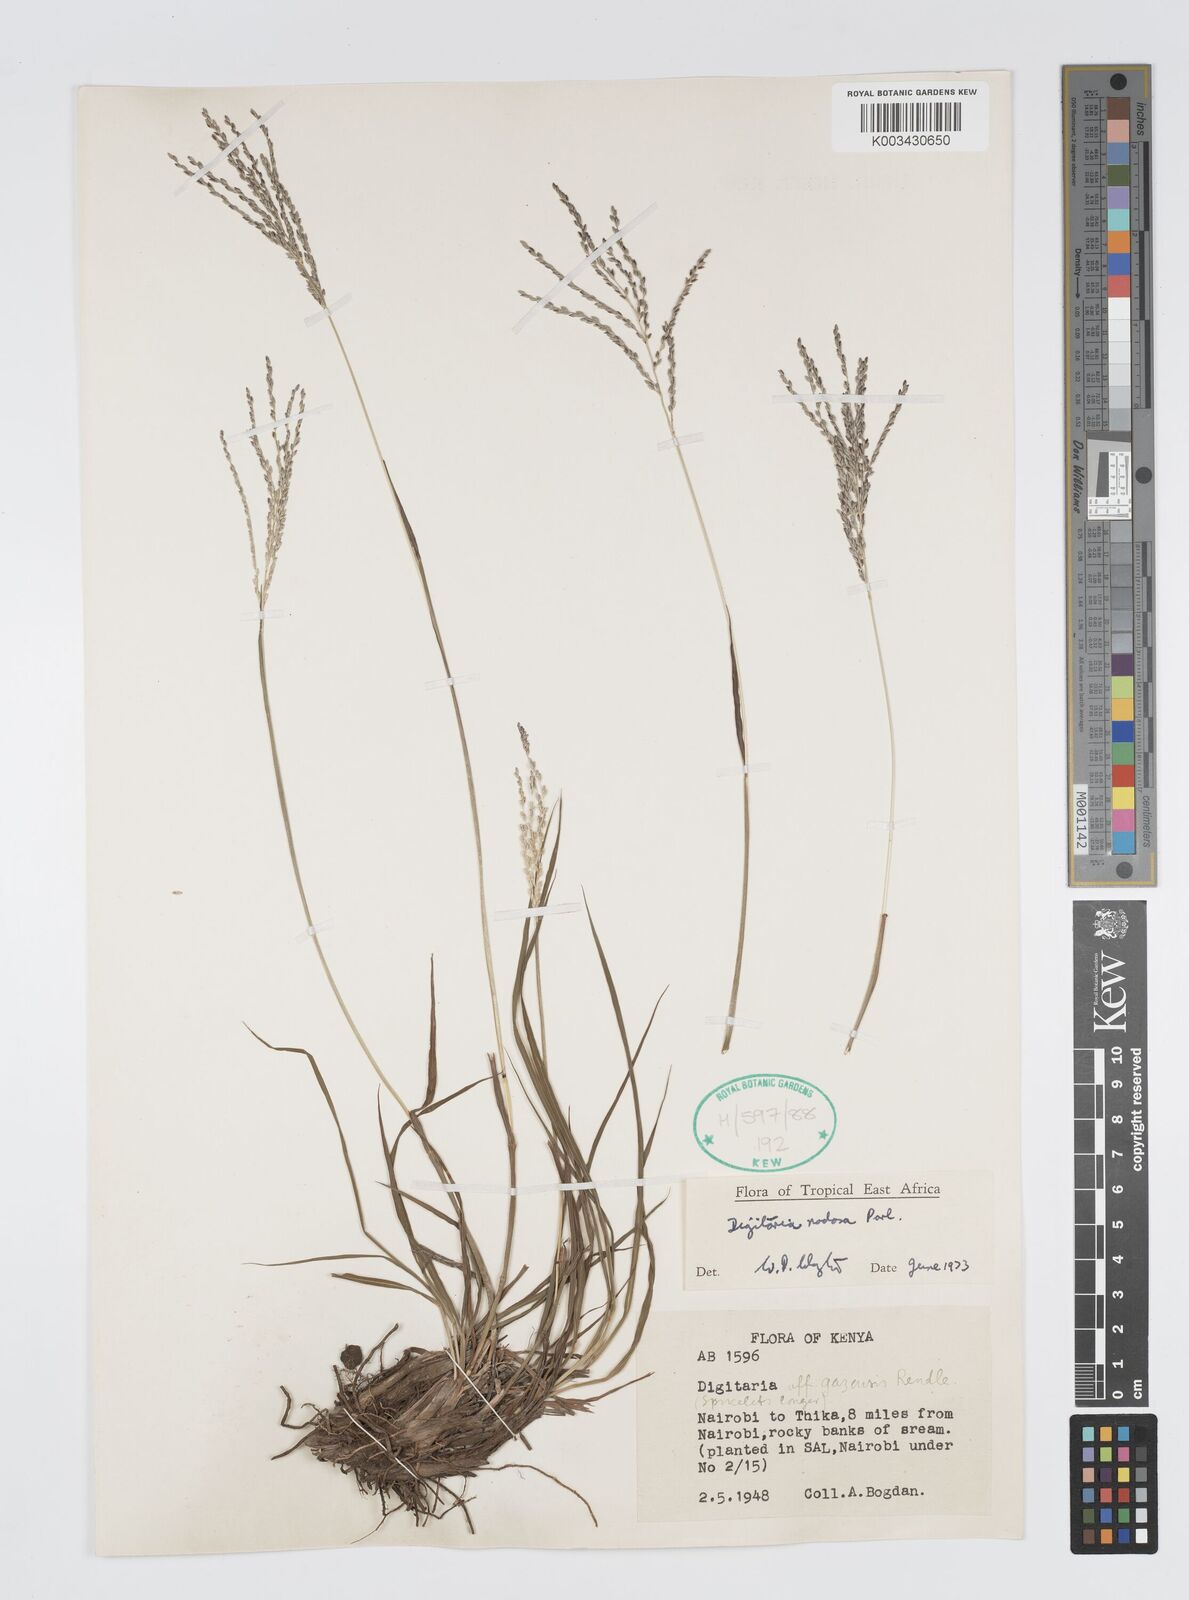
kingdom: Plantae
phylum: Tracheophyta
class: Liliopsida
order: Poales
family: Poaceae
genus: Digitaria
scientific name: Digitaria nodosa
